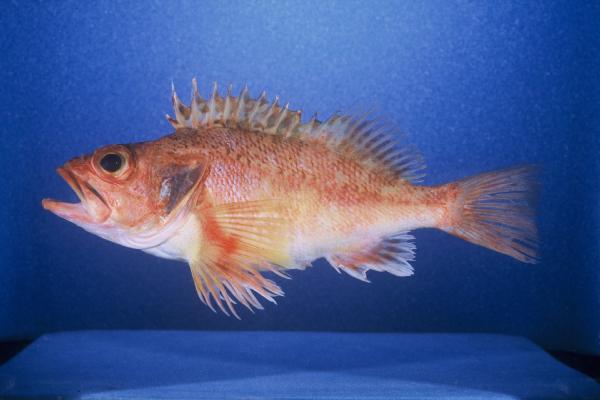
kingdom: Animalia
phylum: Chordata
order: Scorpaeniformes
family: Sebastidae
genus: Helicolenus
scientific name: Helicolenus dactylopterus
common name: Blackbelly rosefish
